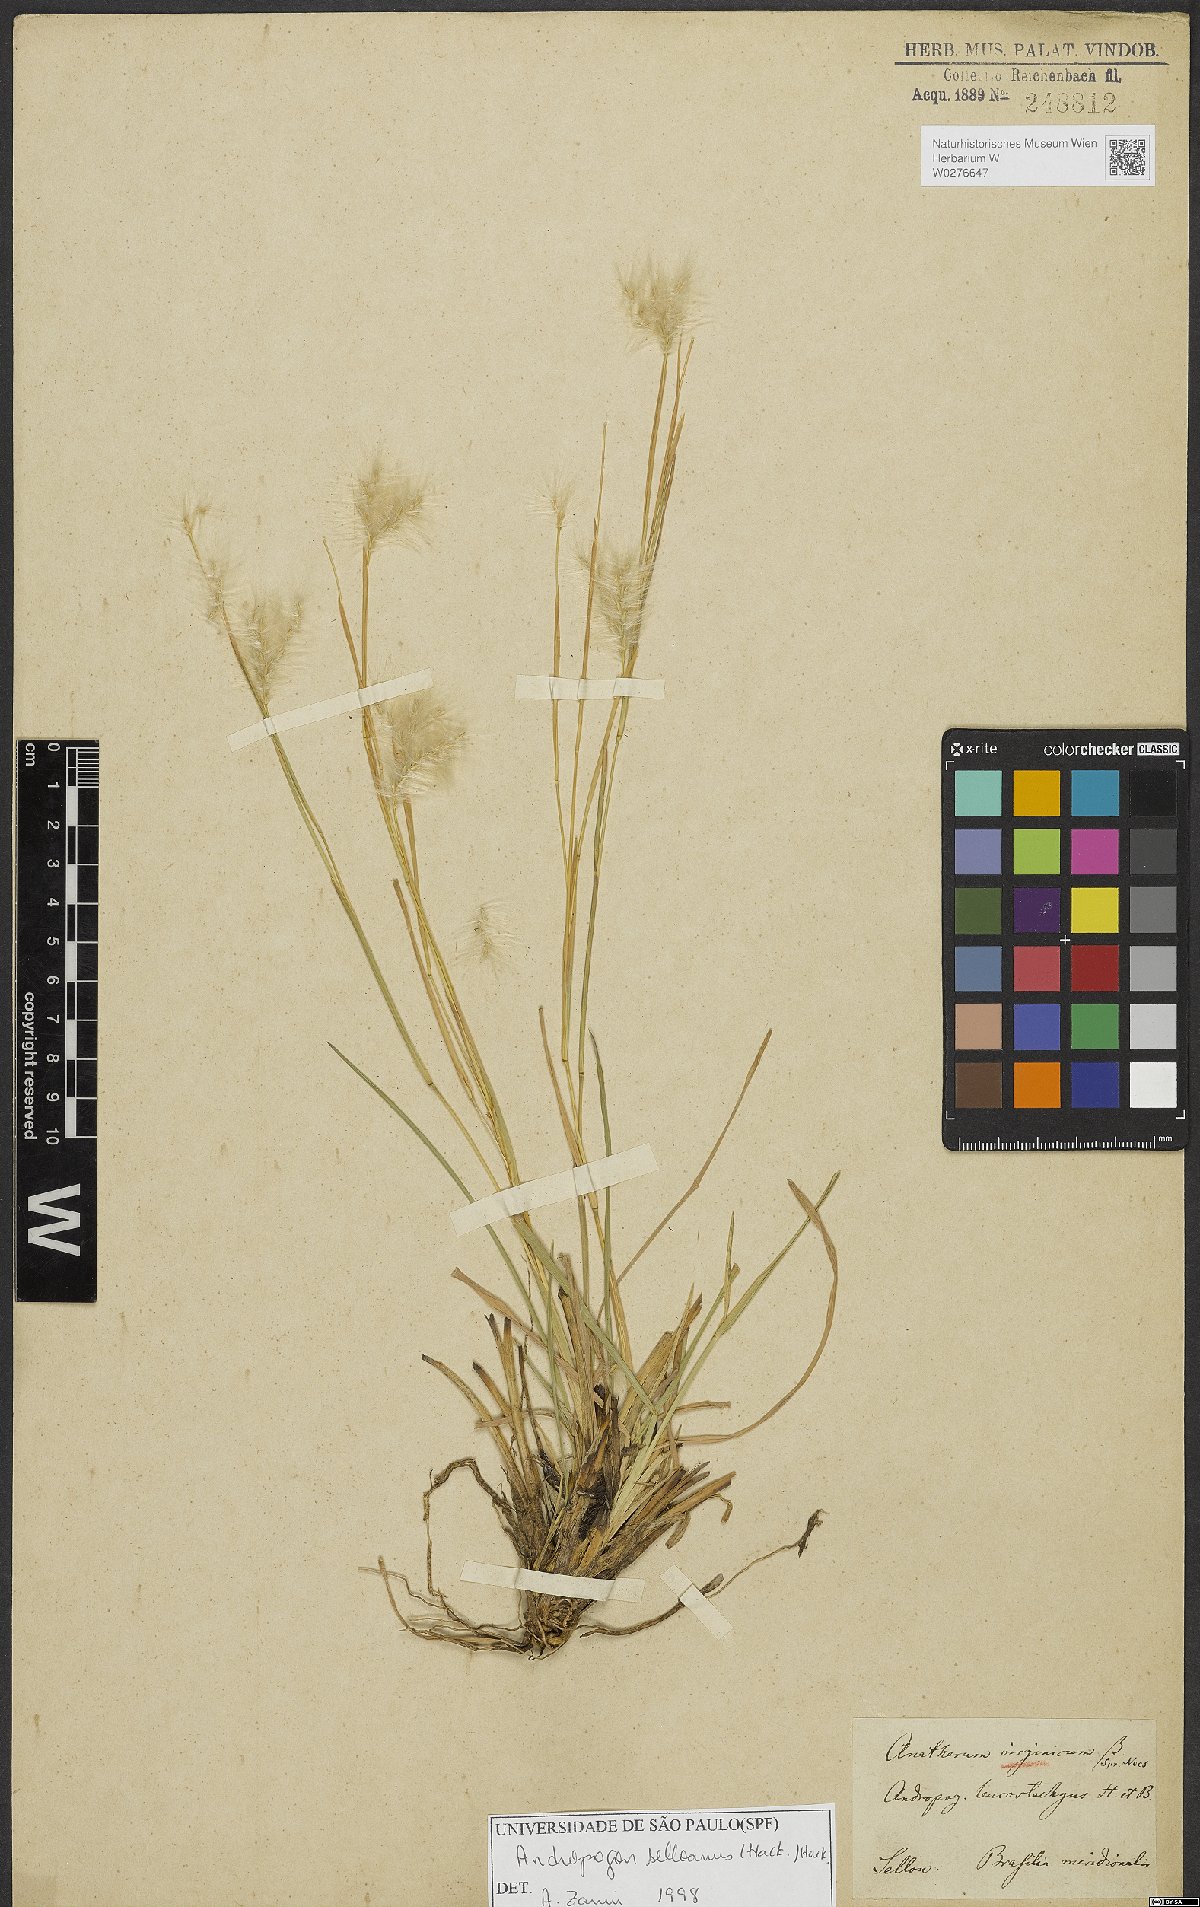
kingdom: Plantae
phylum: Tracheophyta
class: Liliopsida
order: Poales
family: Poaceae
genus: Andropogon
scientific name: Andropogon selloanus
